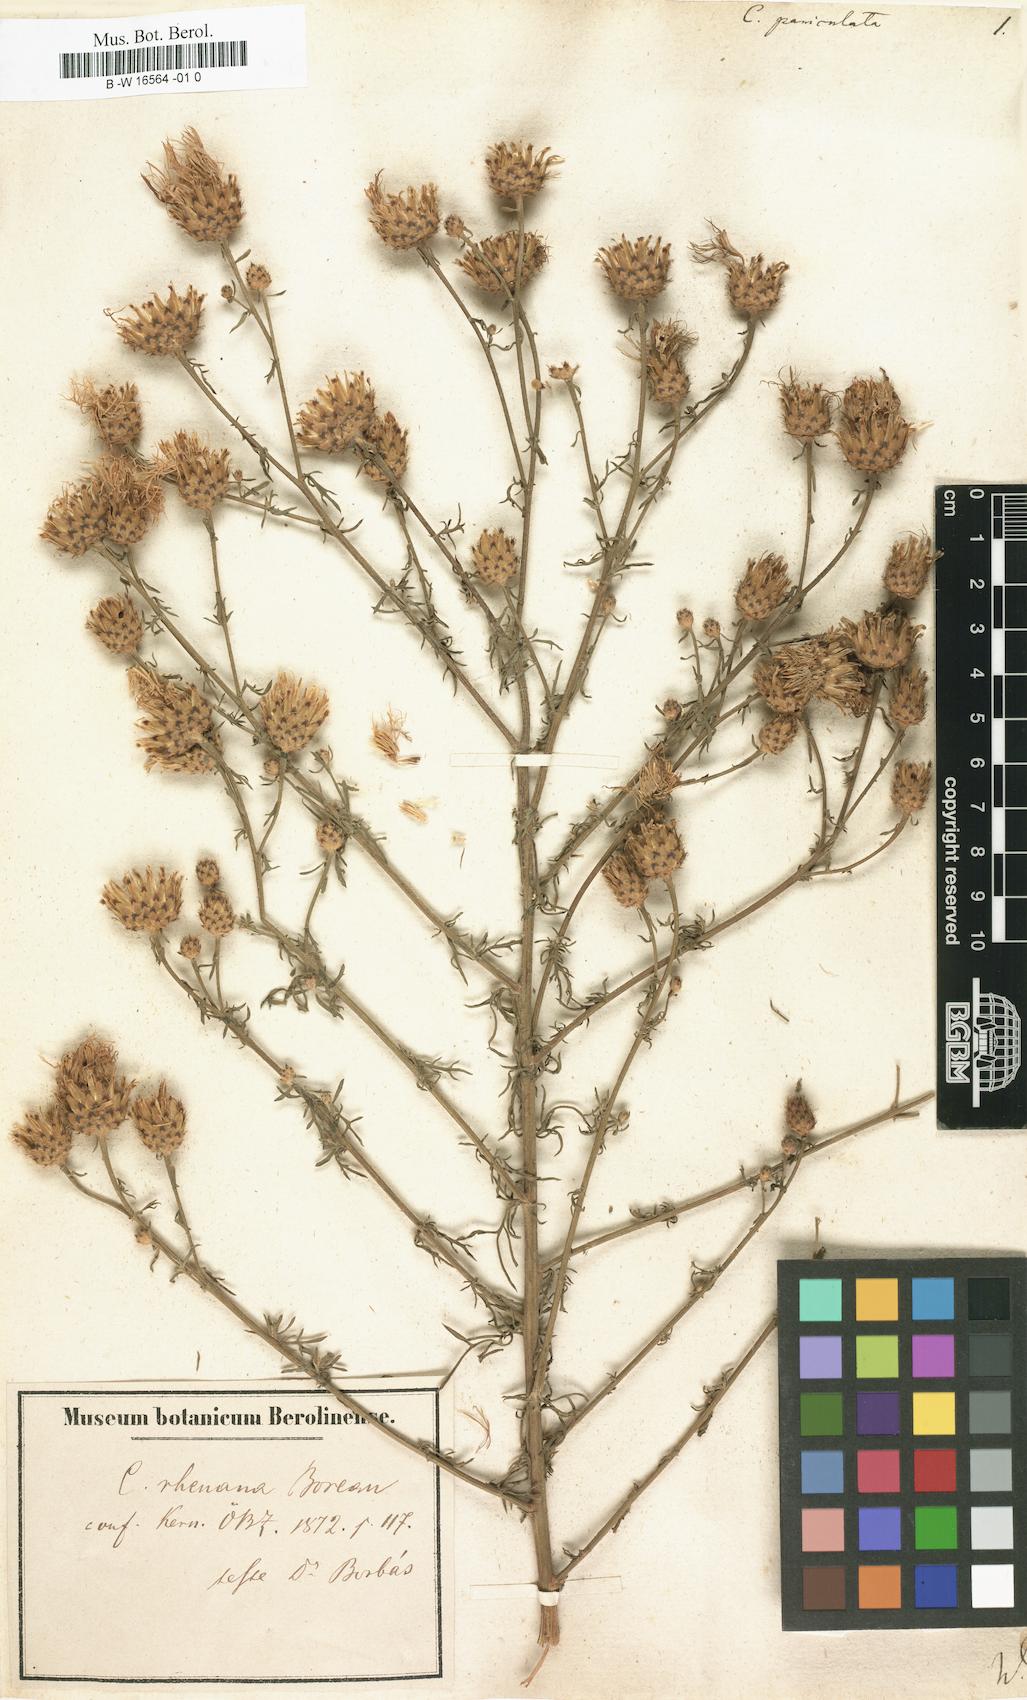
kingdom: Plantae
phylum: Tracheophyta
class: Magnoliopsida
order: Asterales
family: Asteraceae
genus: Centaurea
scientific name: Centaurea paniculata
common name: Jersey knapweed
